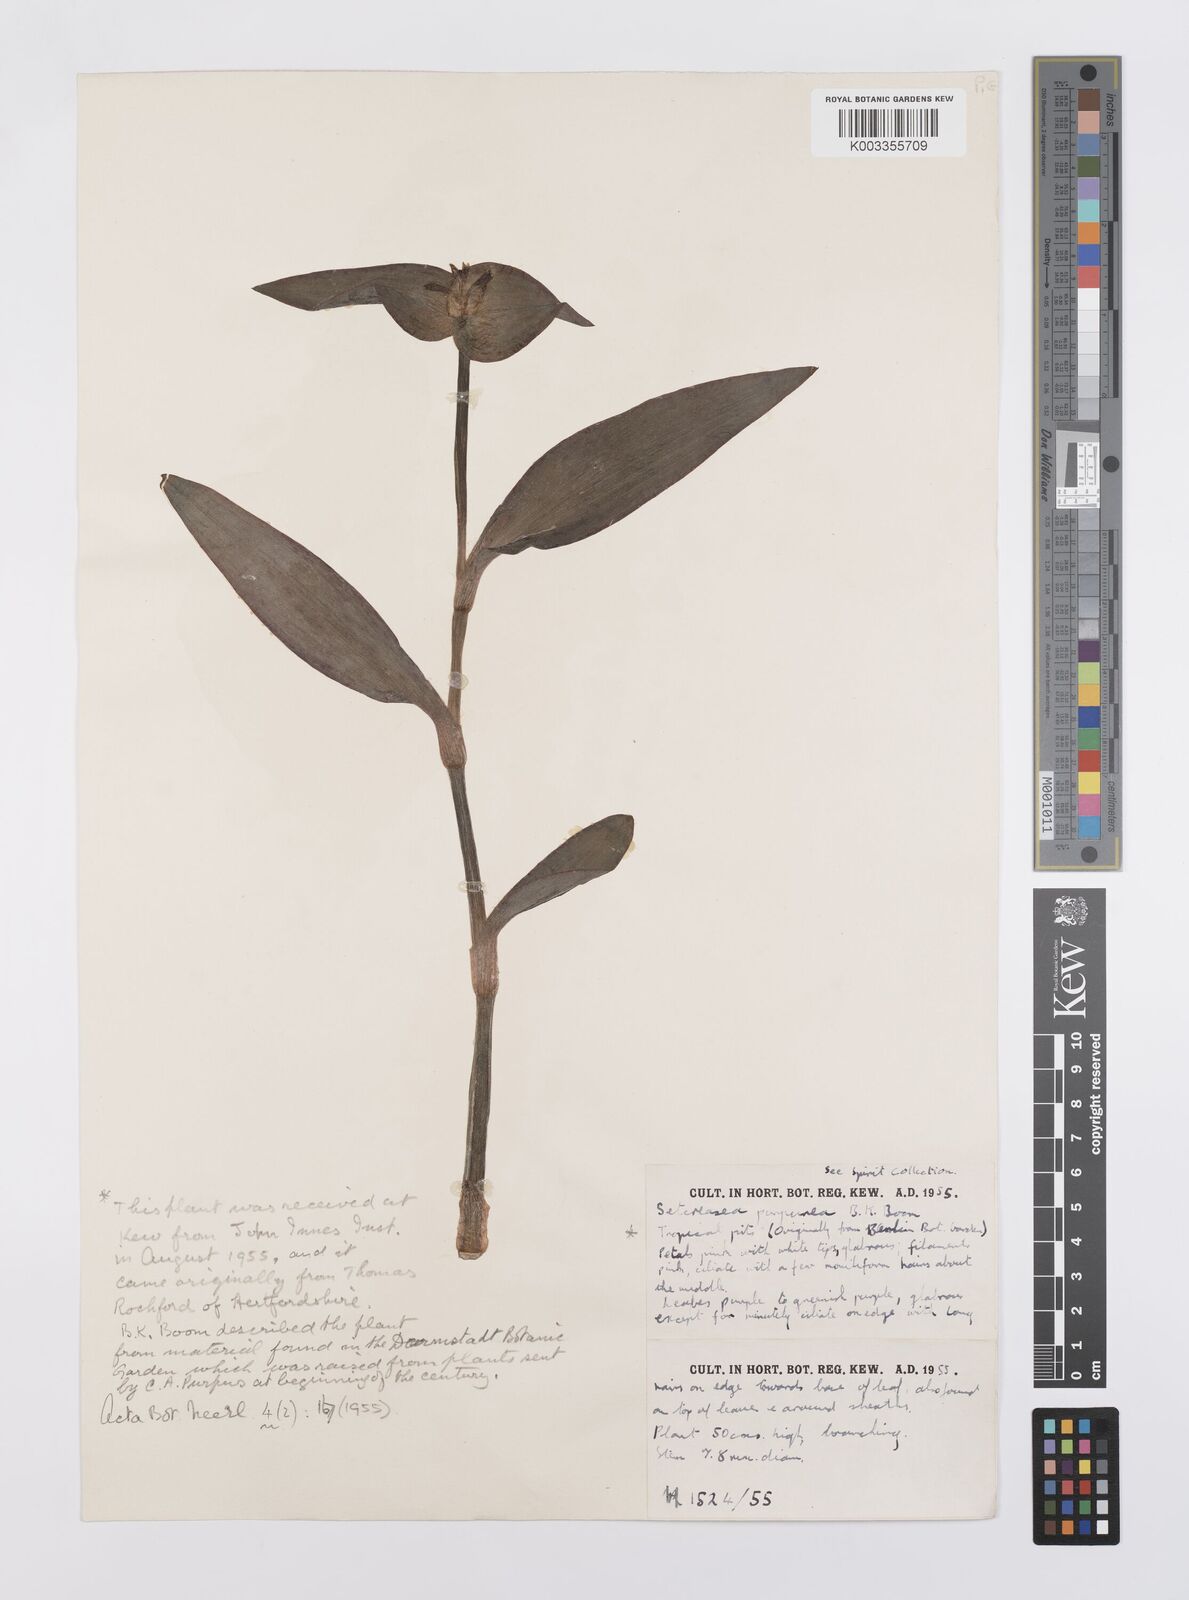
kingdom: Plantae
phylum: Tracheophyta
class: Liliopsida
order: Commelinales
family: Commelinaceae
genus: Callisia
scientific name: Callisia purpurascens
